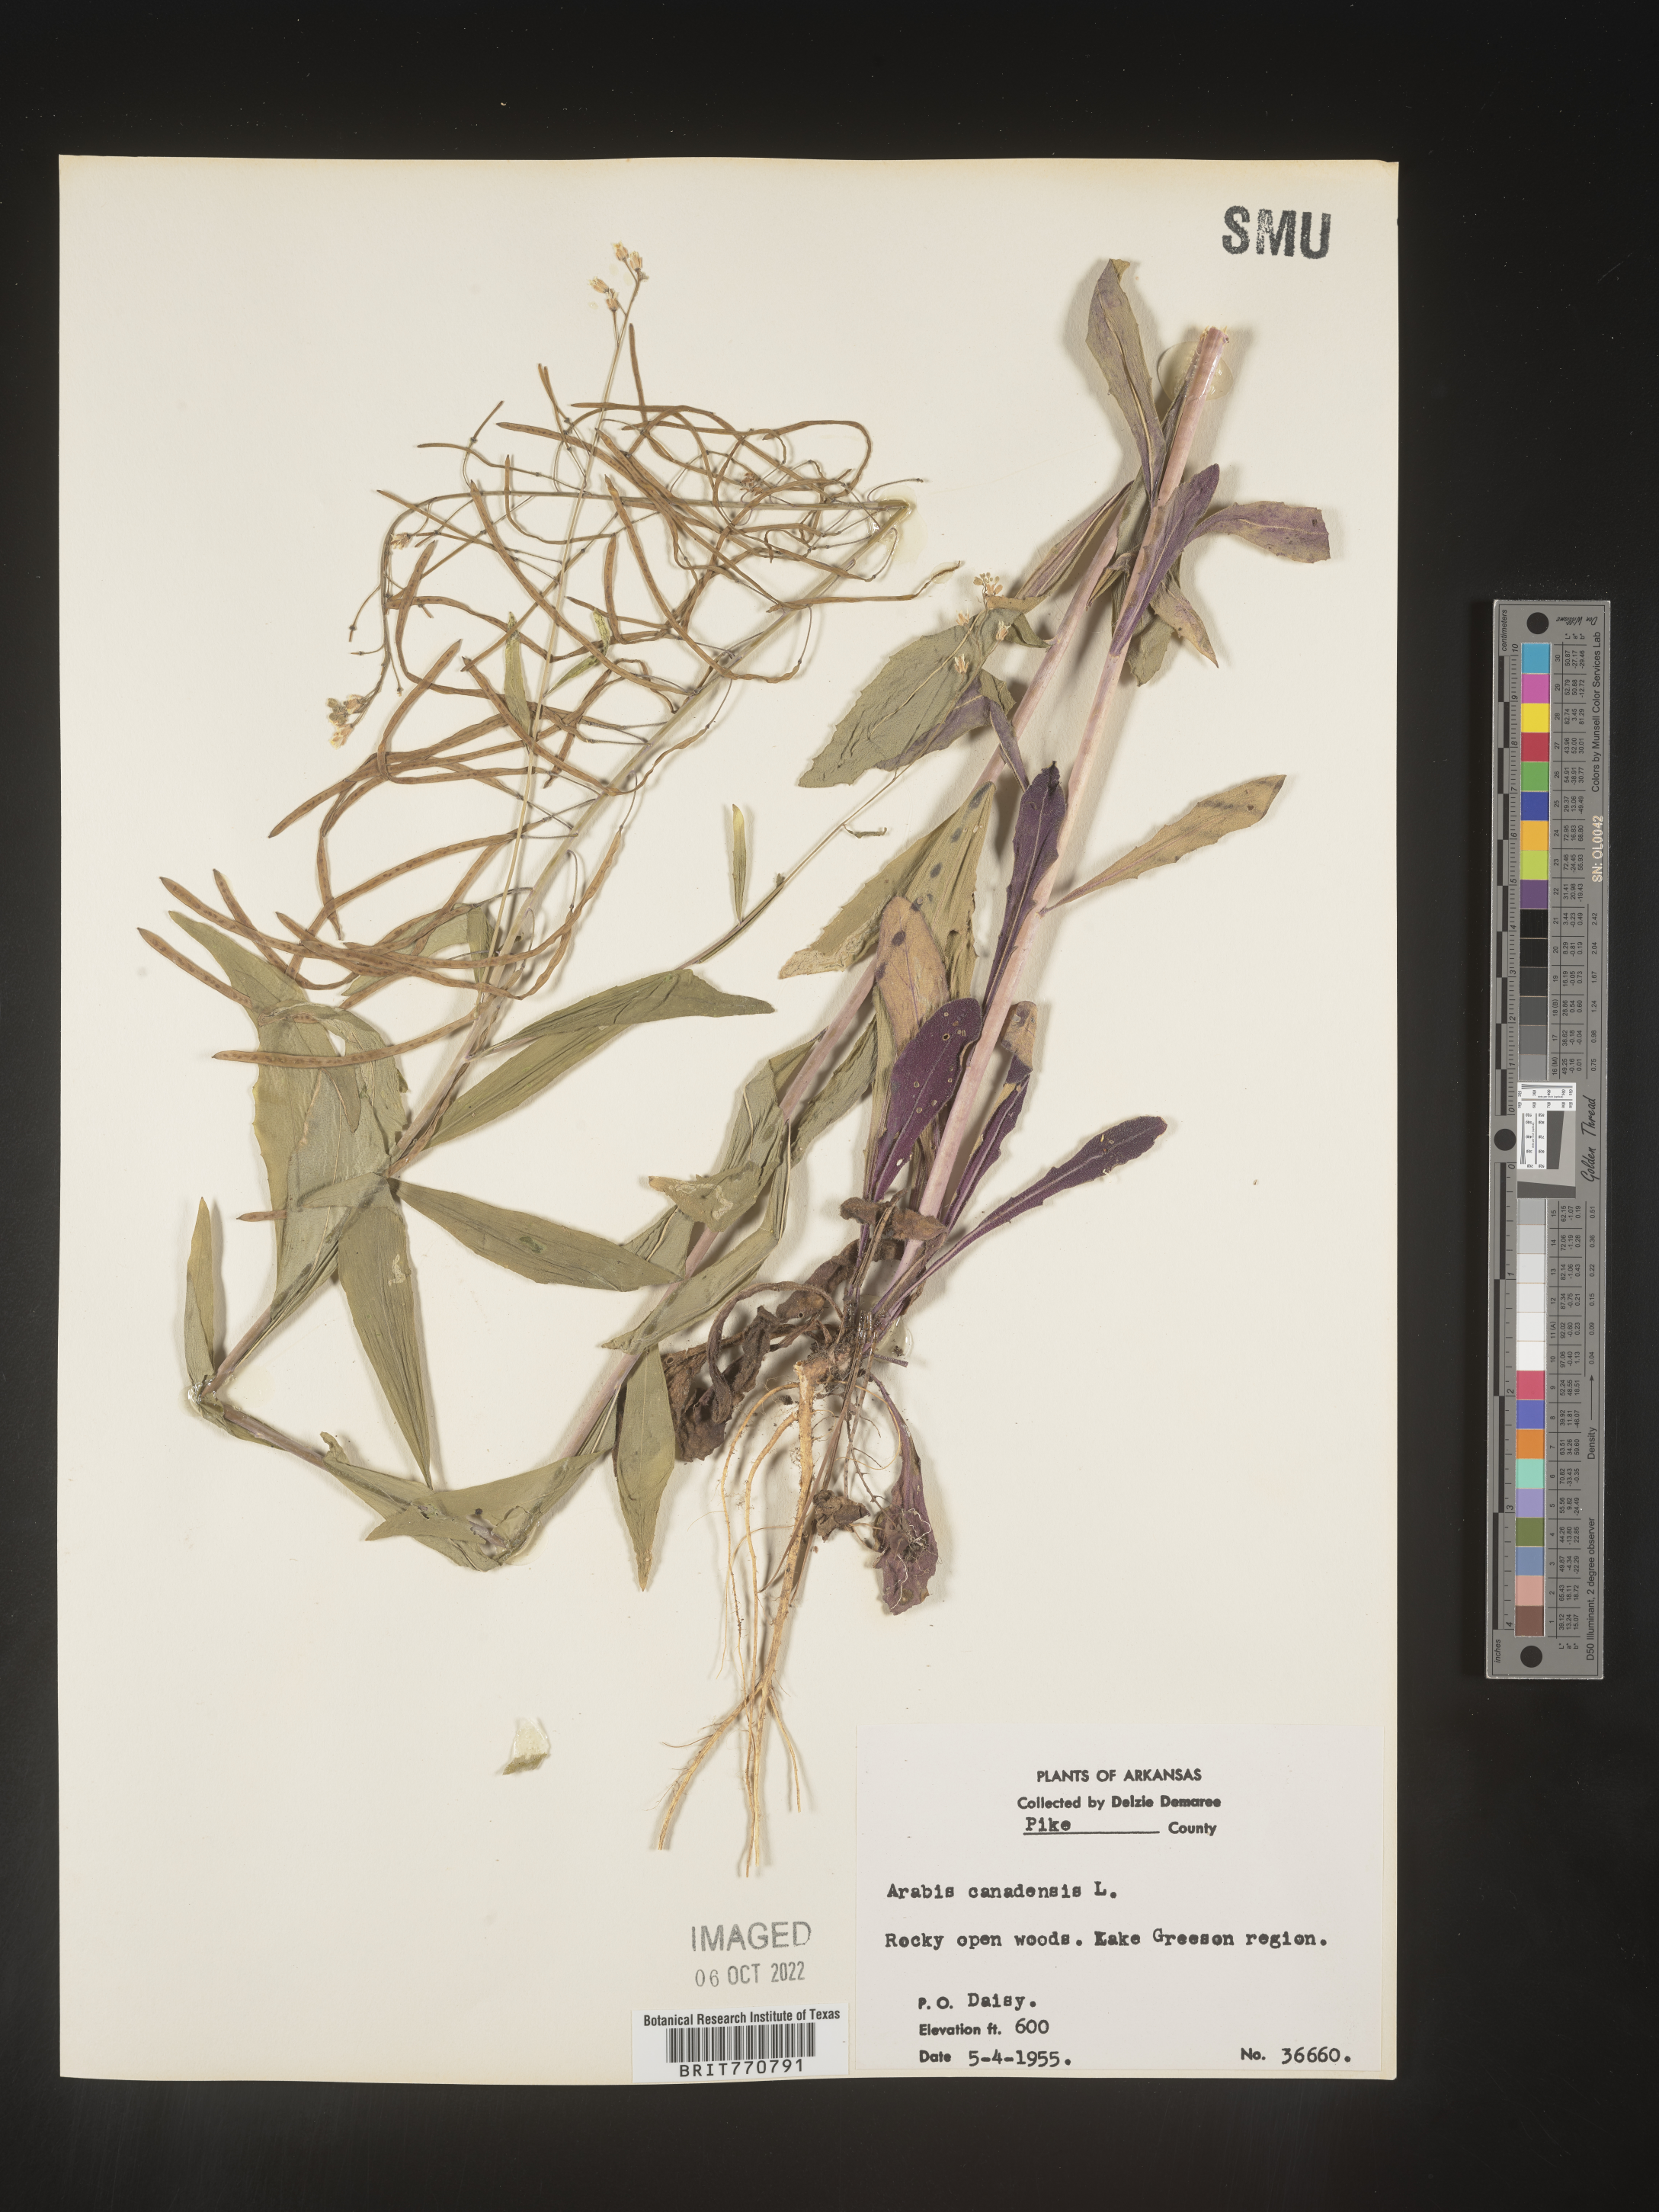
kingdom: Plantae
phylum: Tracheophyta
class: Magnoliopsida
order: Brassicales
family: Brassicaceae
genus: Borodinia
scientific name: Borodinia canadensis
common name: Sicklepod
